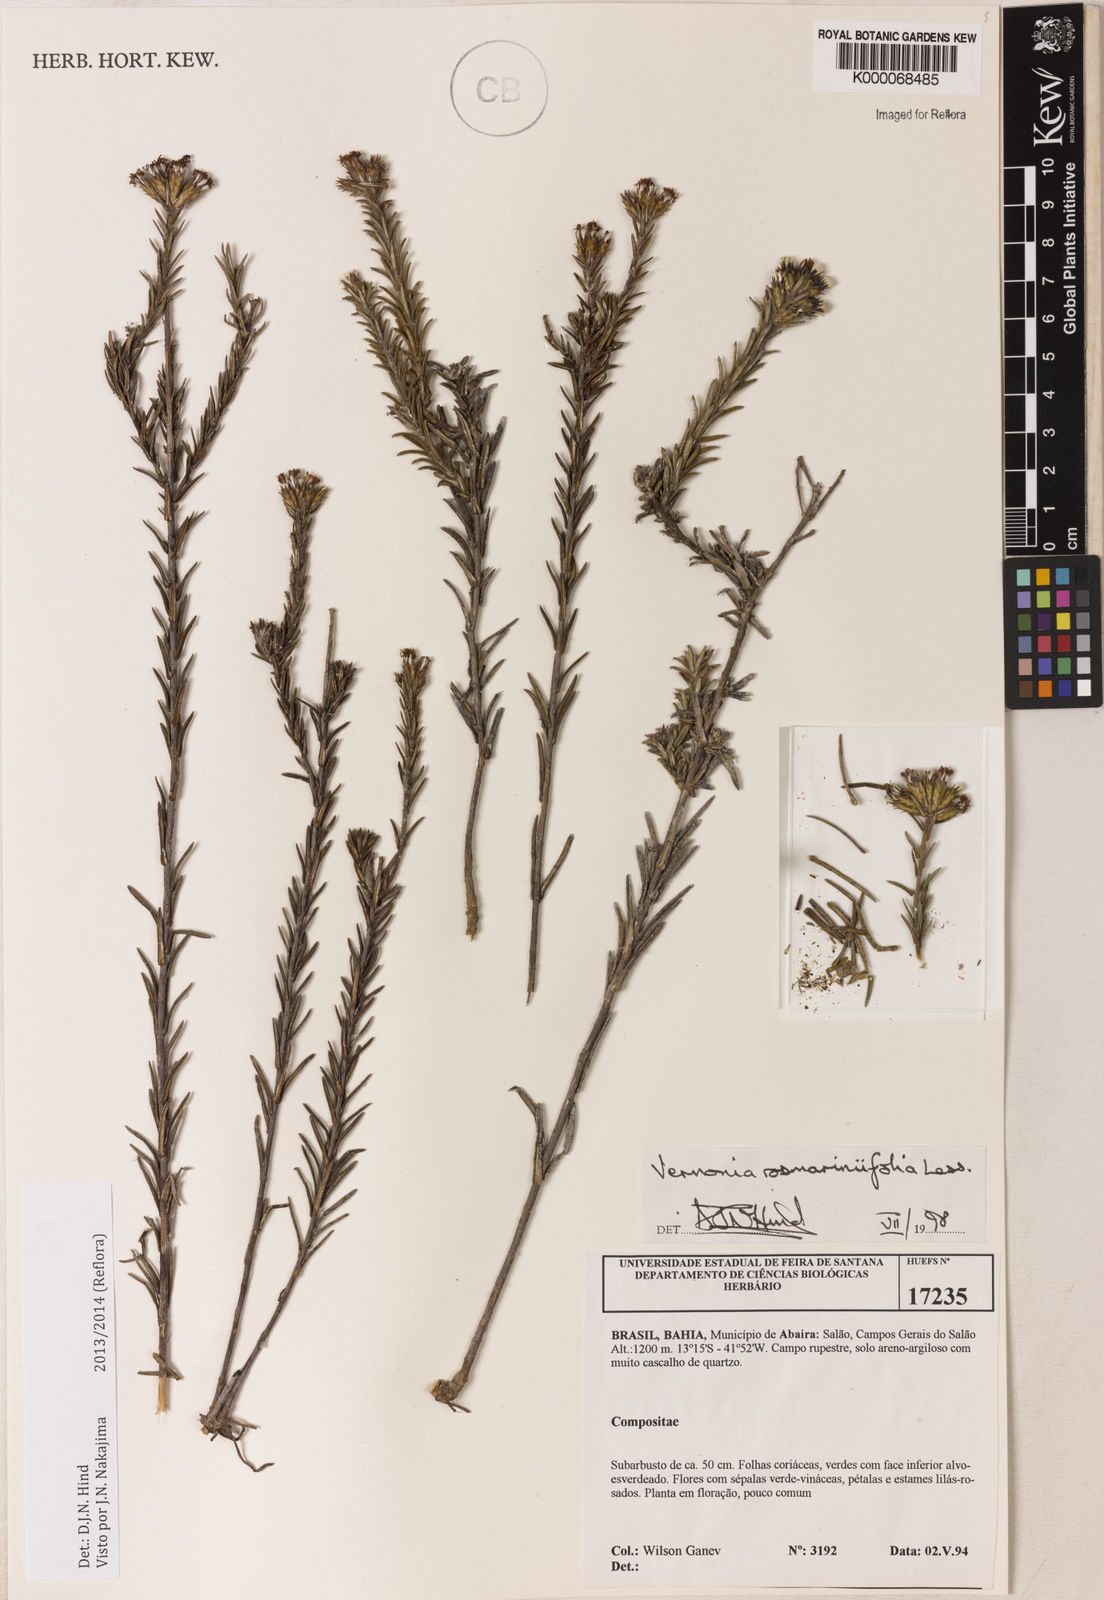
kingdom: Plantae
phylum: Tracheophyta
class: Magnoliopsida
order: Asterales
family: Asteraceae
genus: Lessingianthus
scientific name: Lessingianthus rosmarinifolius
